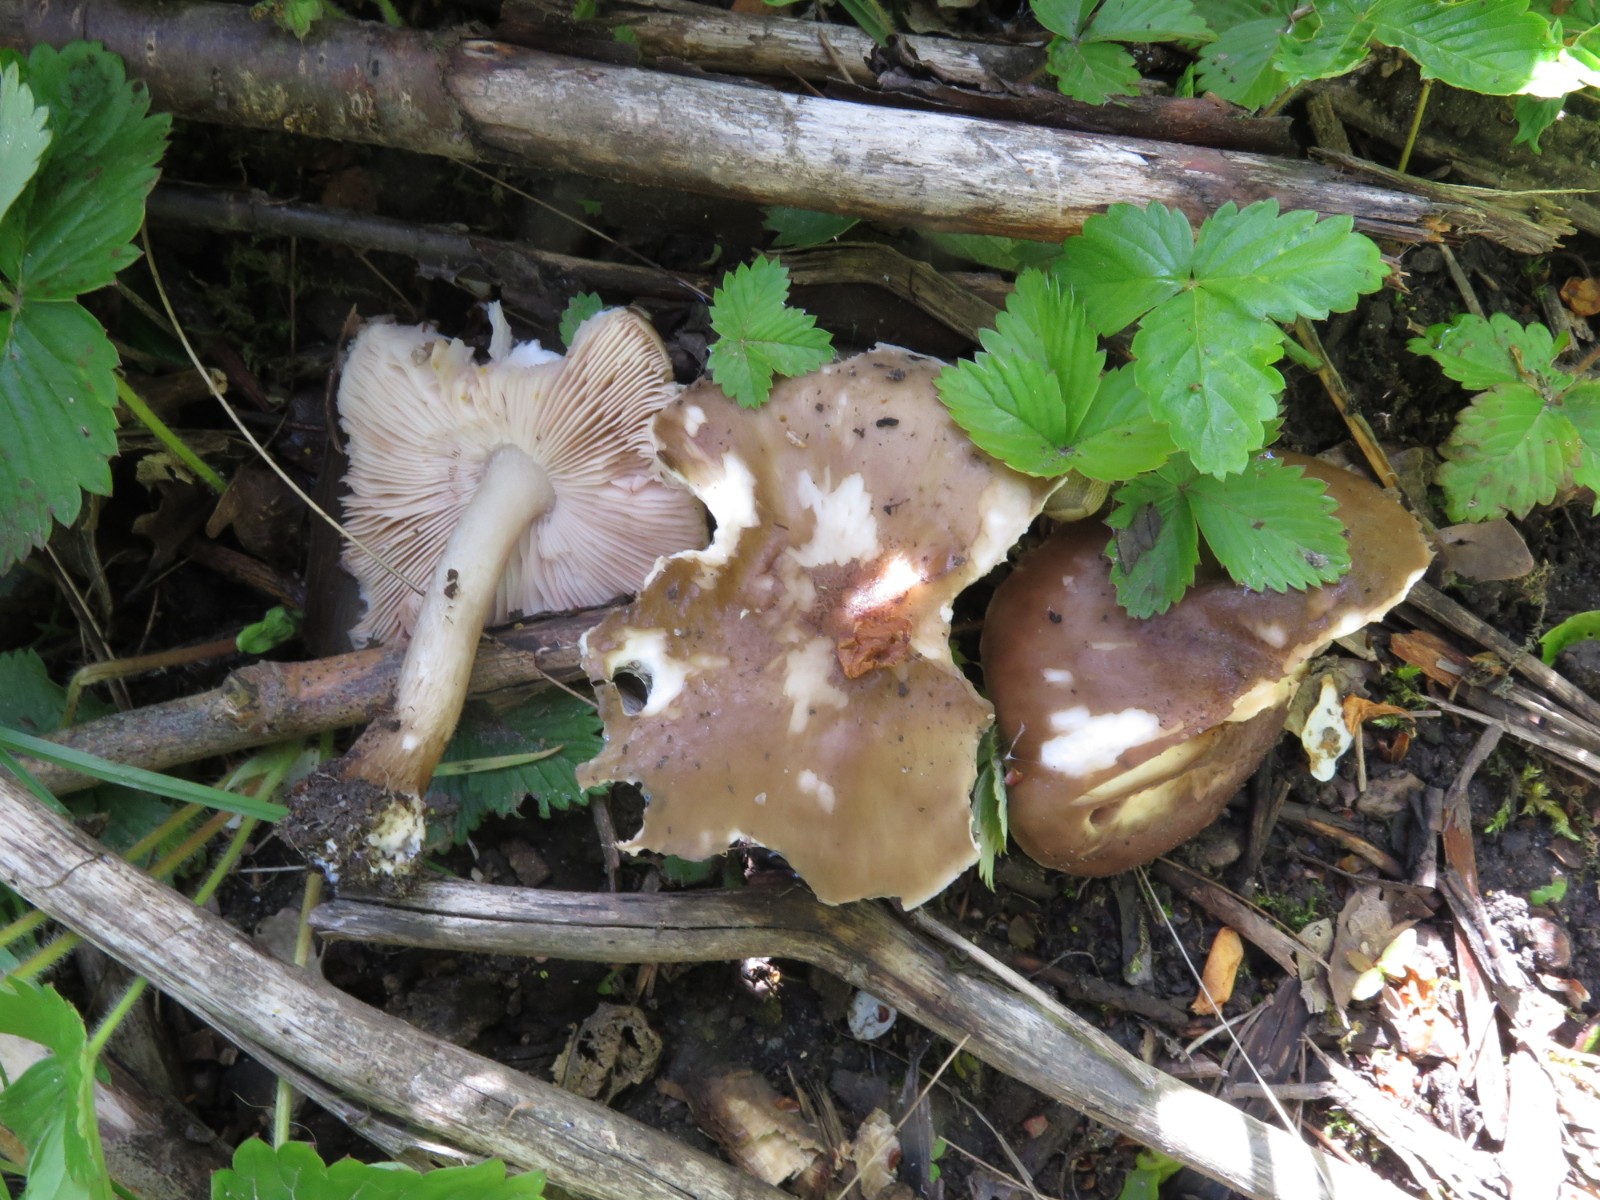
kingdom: Fungi
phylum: Basidiomycota
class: Agaricomycetes
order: Agaricales
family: Pluteaceae
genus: Pluteus
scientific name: Pluteus cervinus
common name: sodfarvet skærmhat
